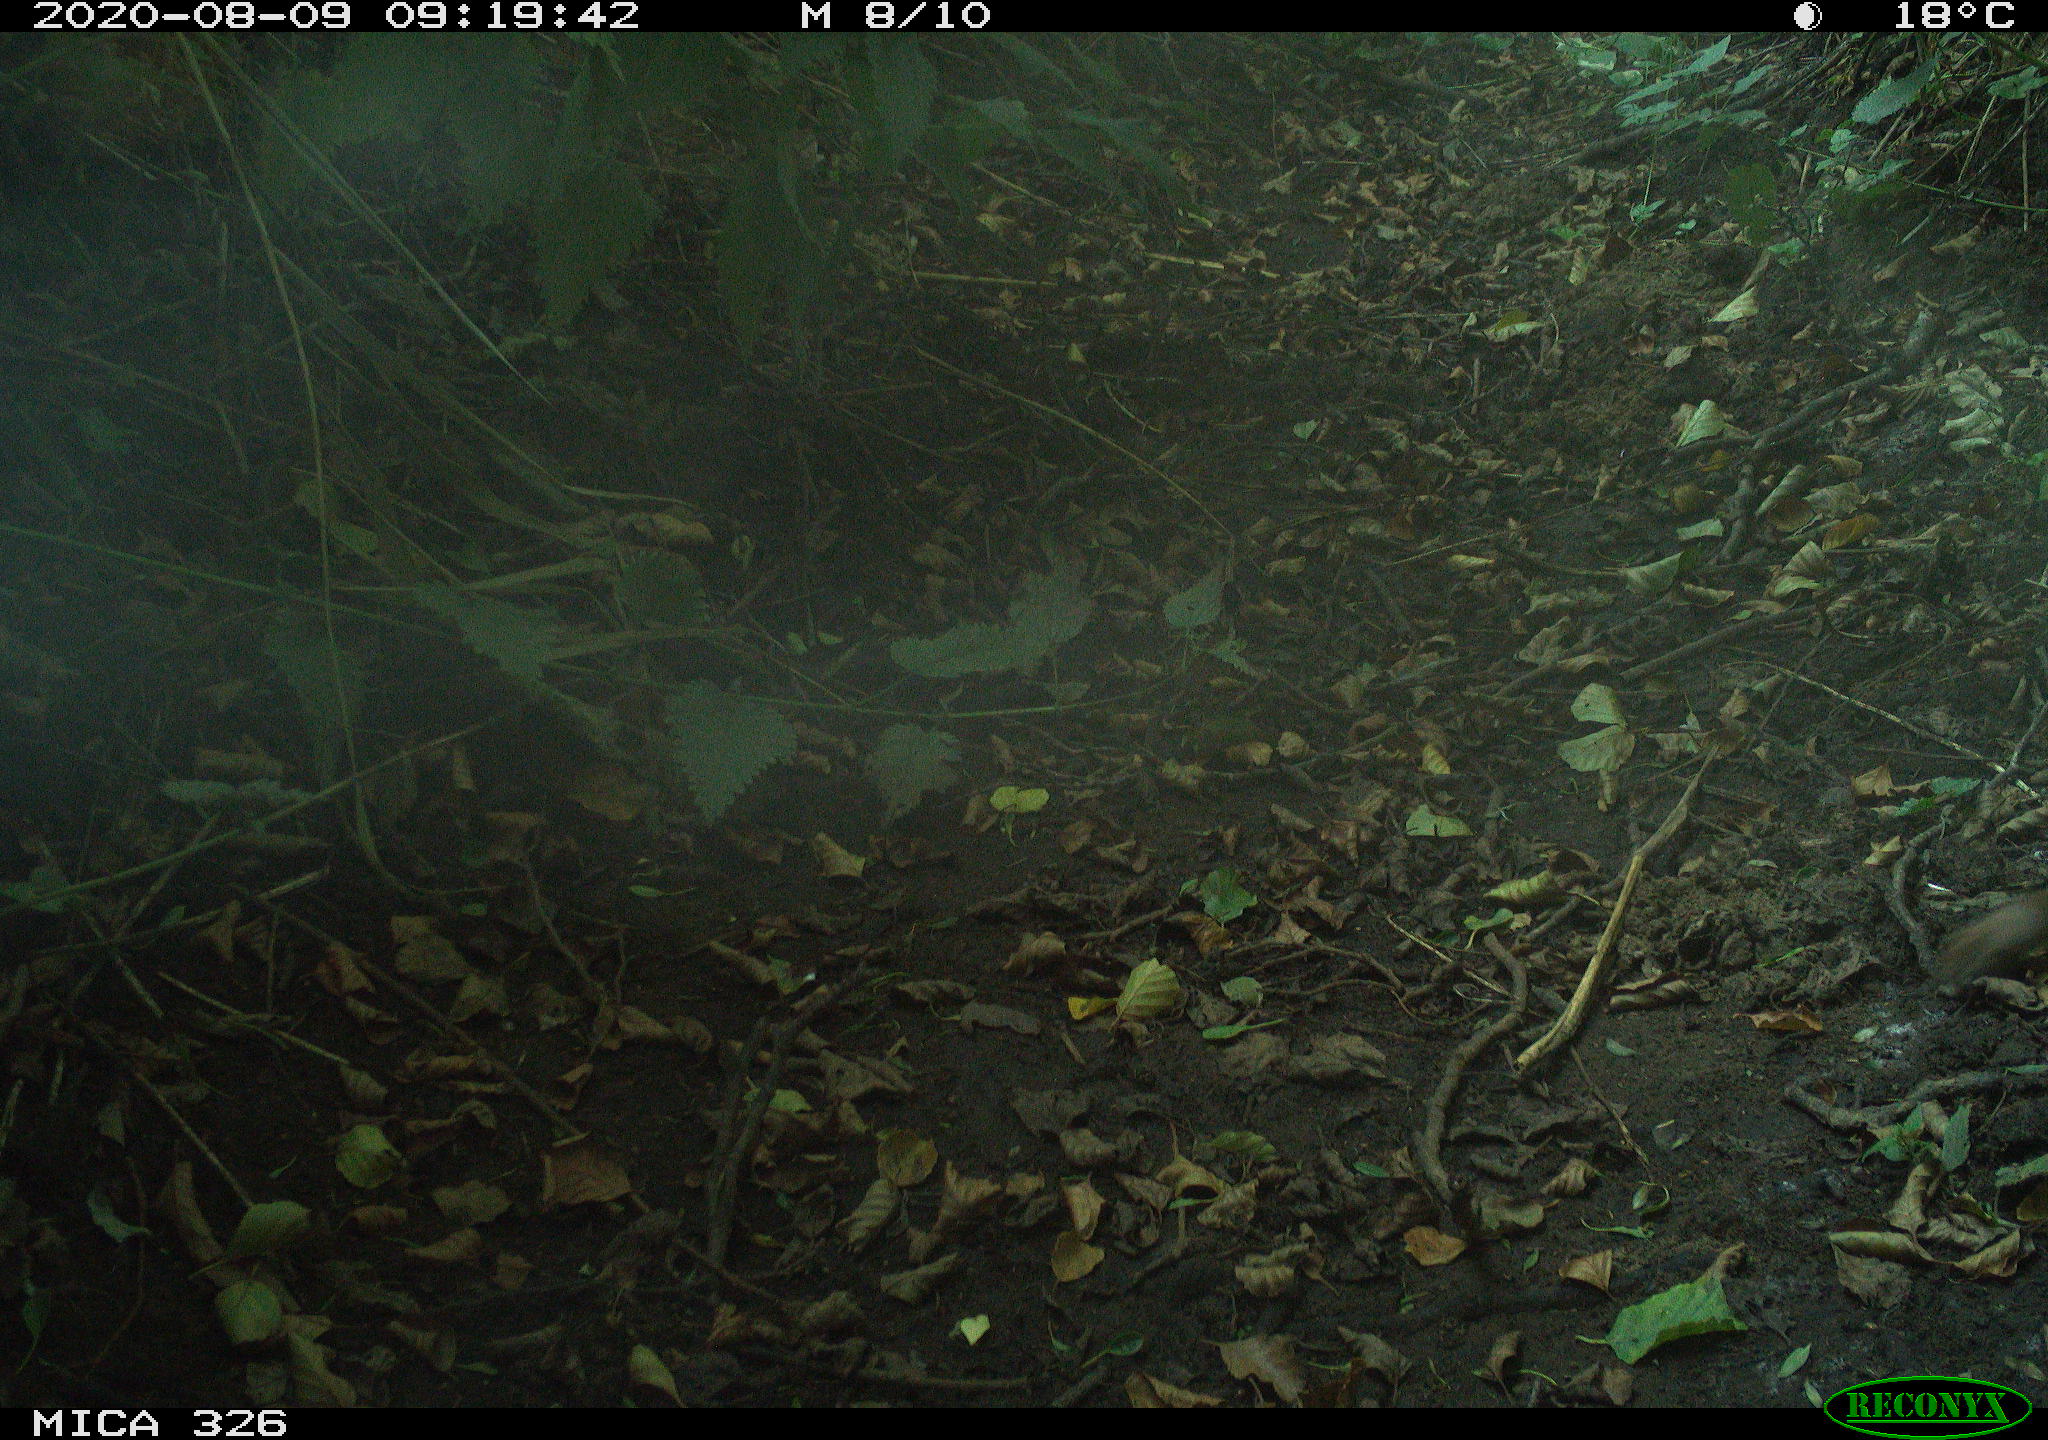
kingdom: Animalia
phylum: Chordata
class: Mammalia
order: Rodentia
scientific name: Rodentia
